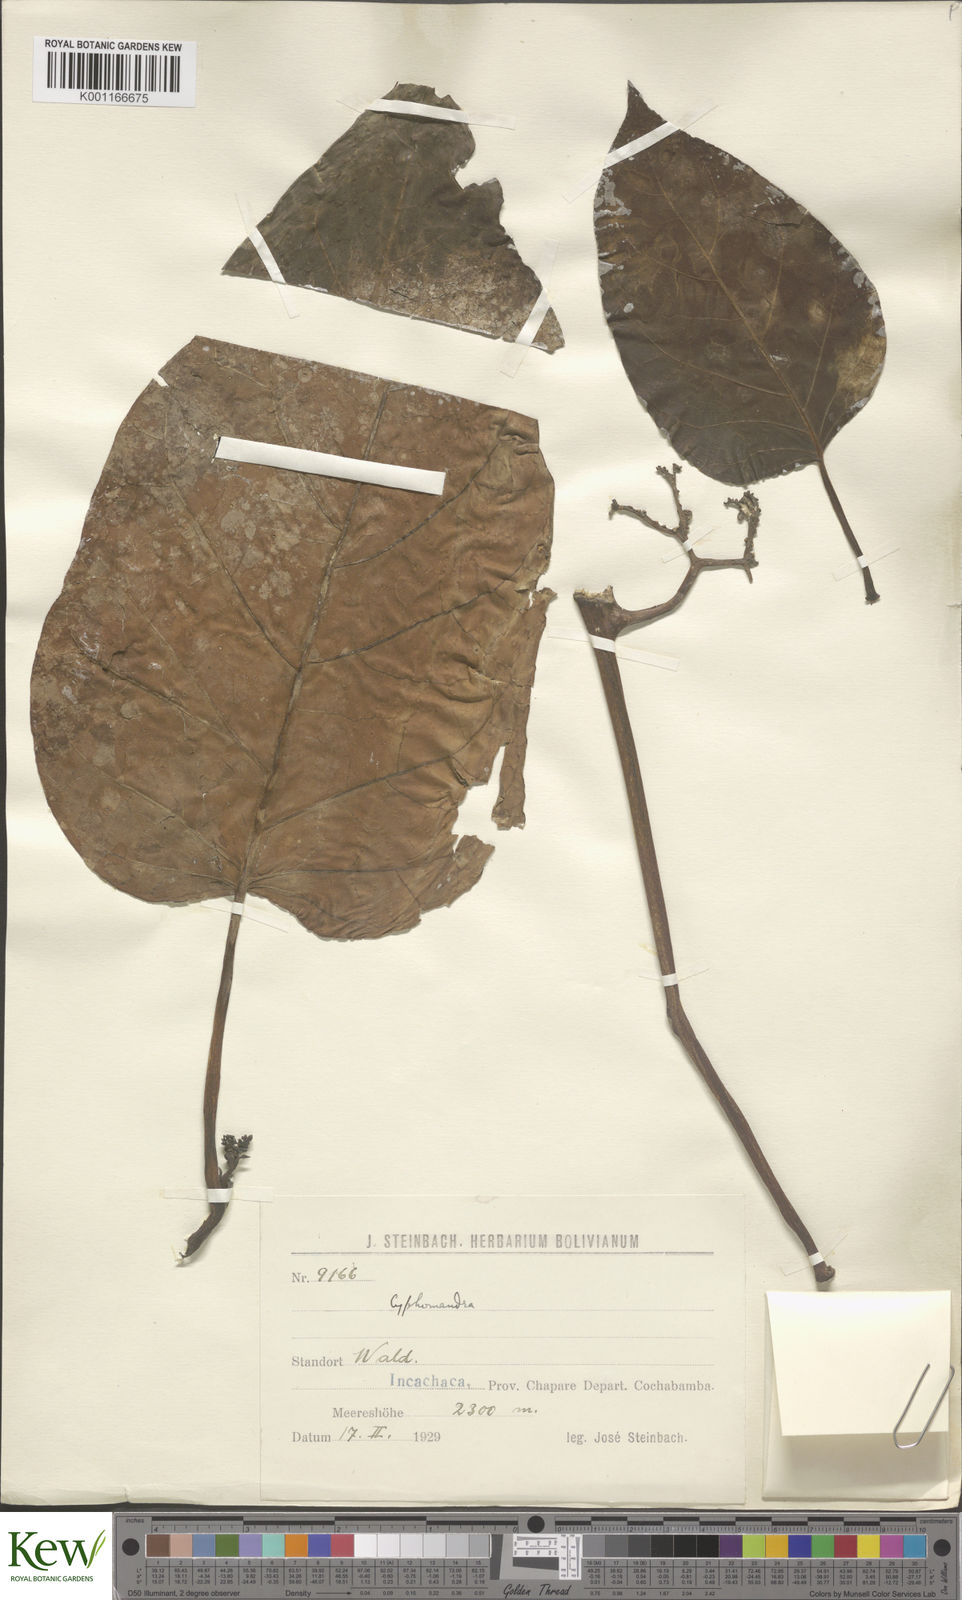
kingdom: Plantae
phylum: Tracheophyta
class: Magnoliopsida
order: Solanales
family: Solanaceae
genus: Solanum
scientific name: Solanum
